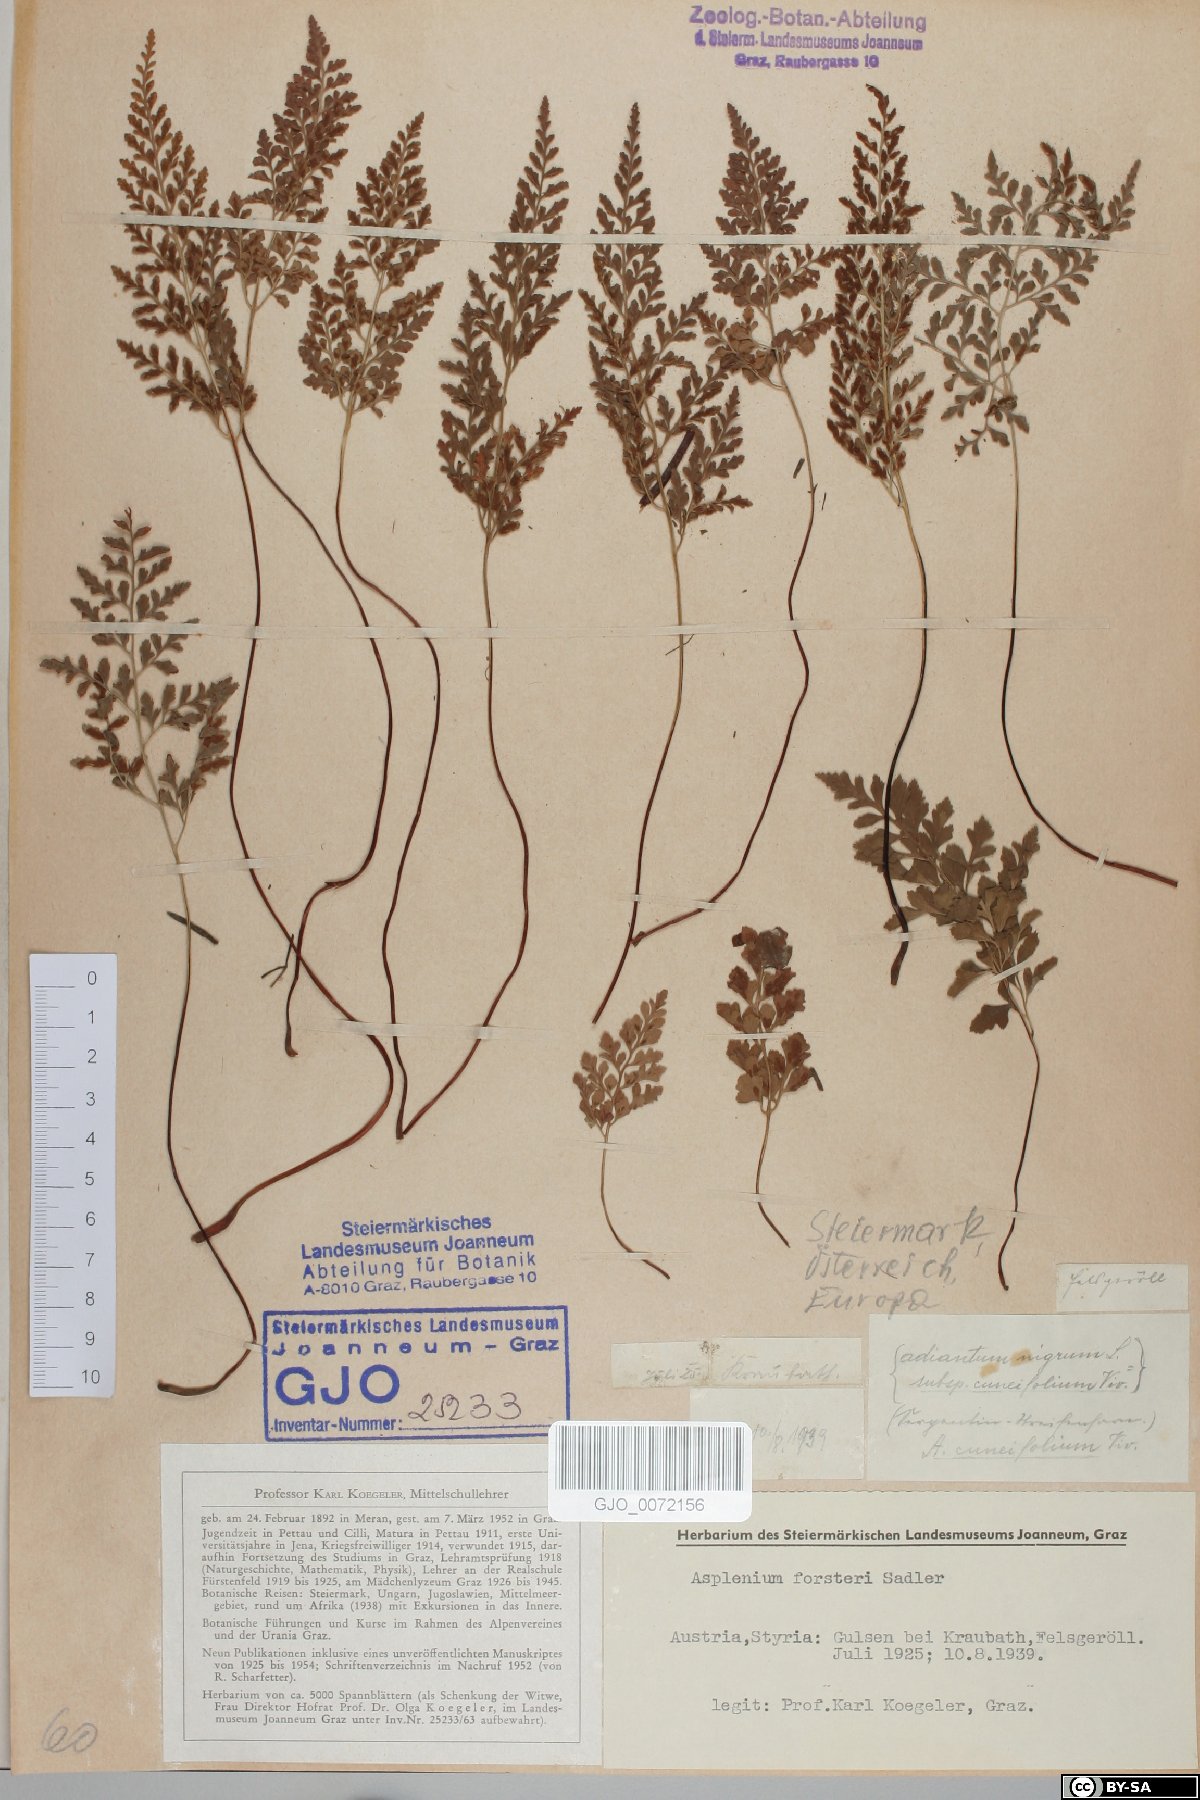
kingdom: Plantae
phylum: Tracheophyta
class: Polypodiopsida
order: Polypodiales
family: Aspleniaceae
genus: Asplenium
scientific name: Asplenium cuneifolium
